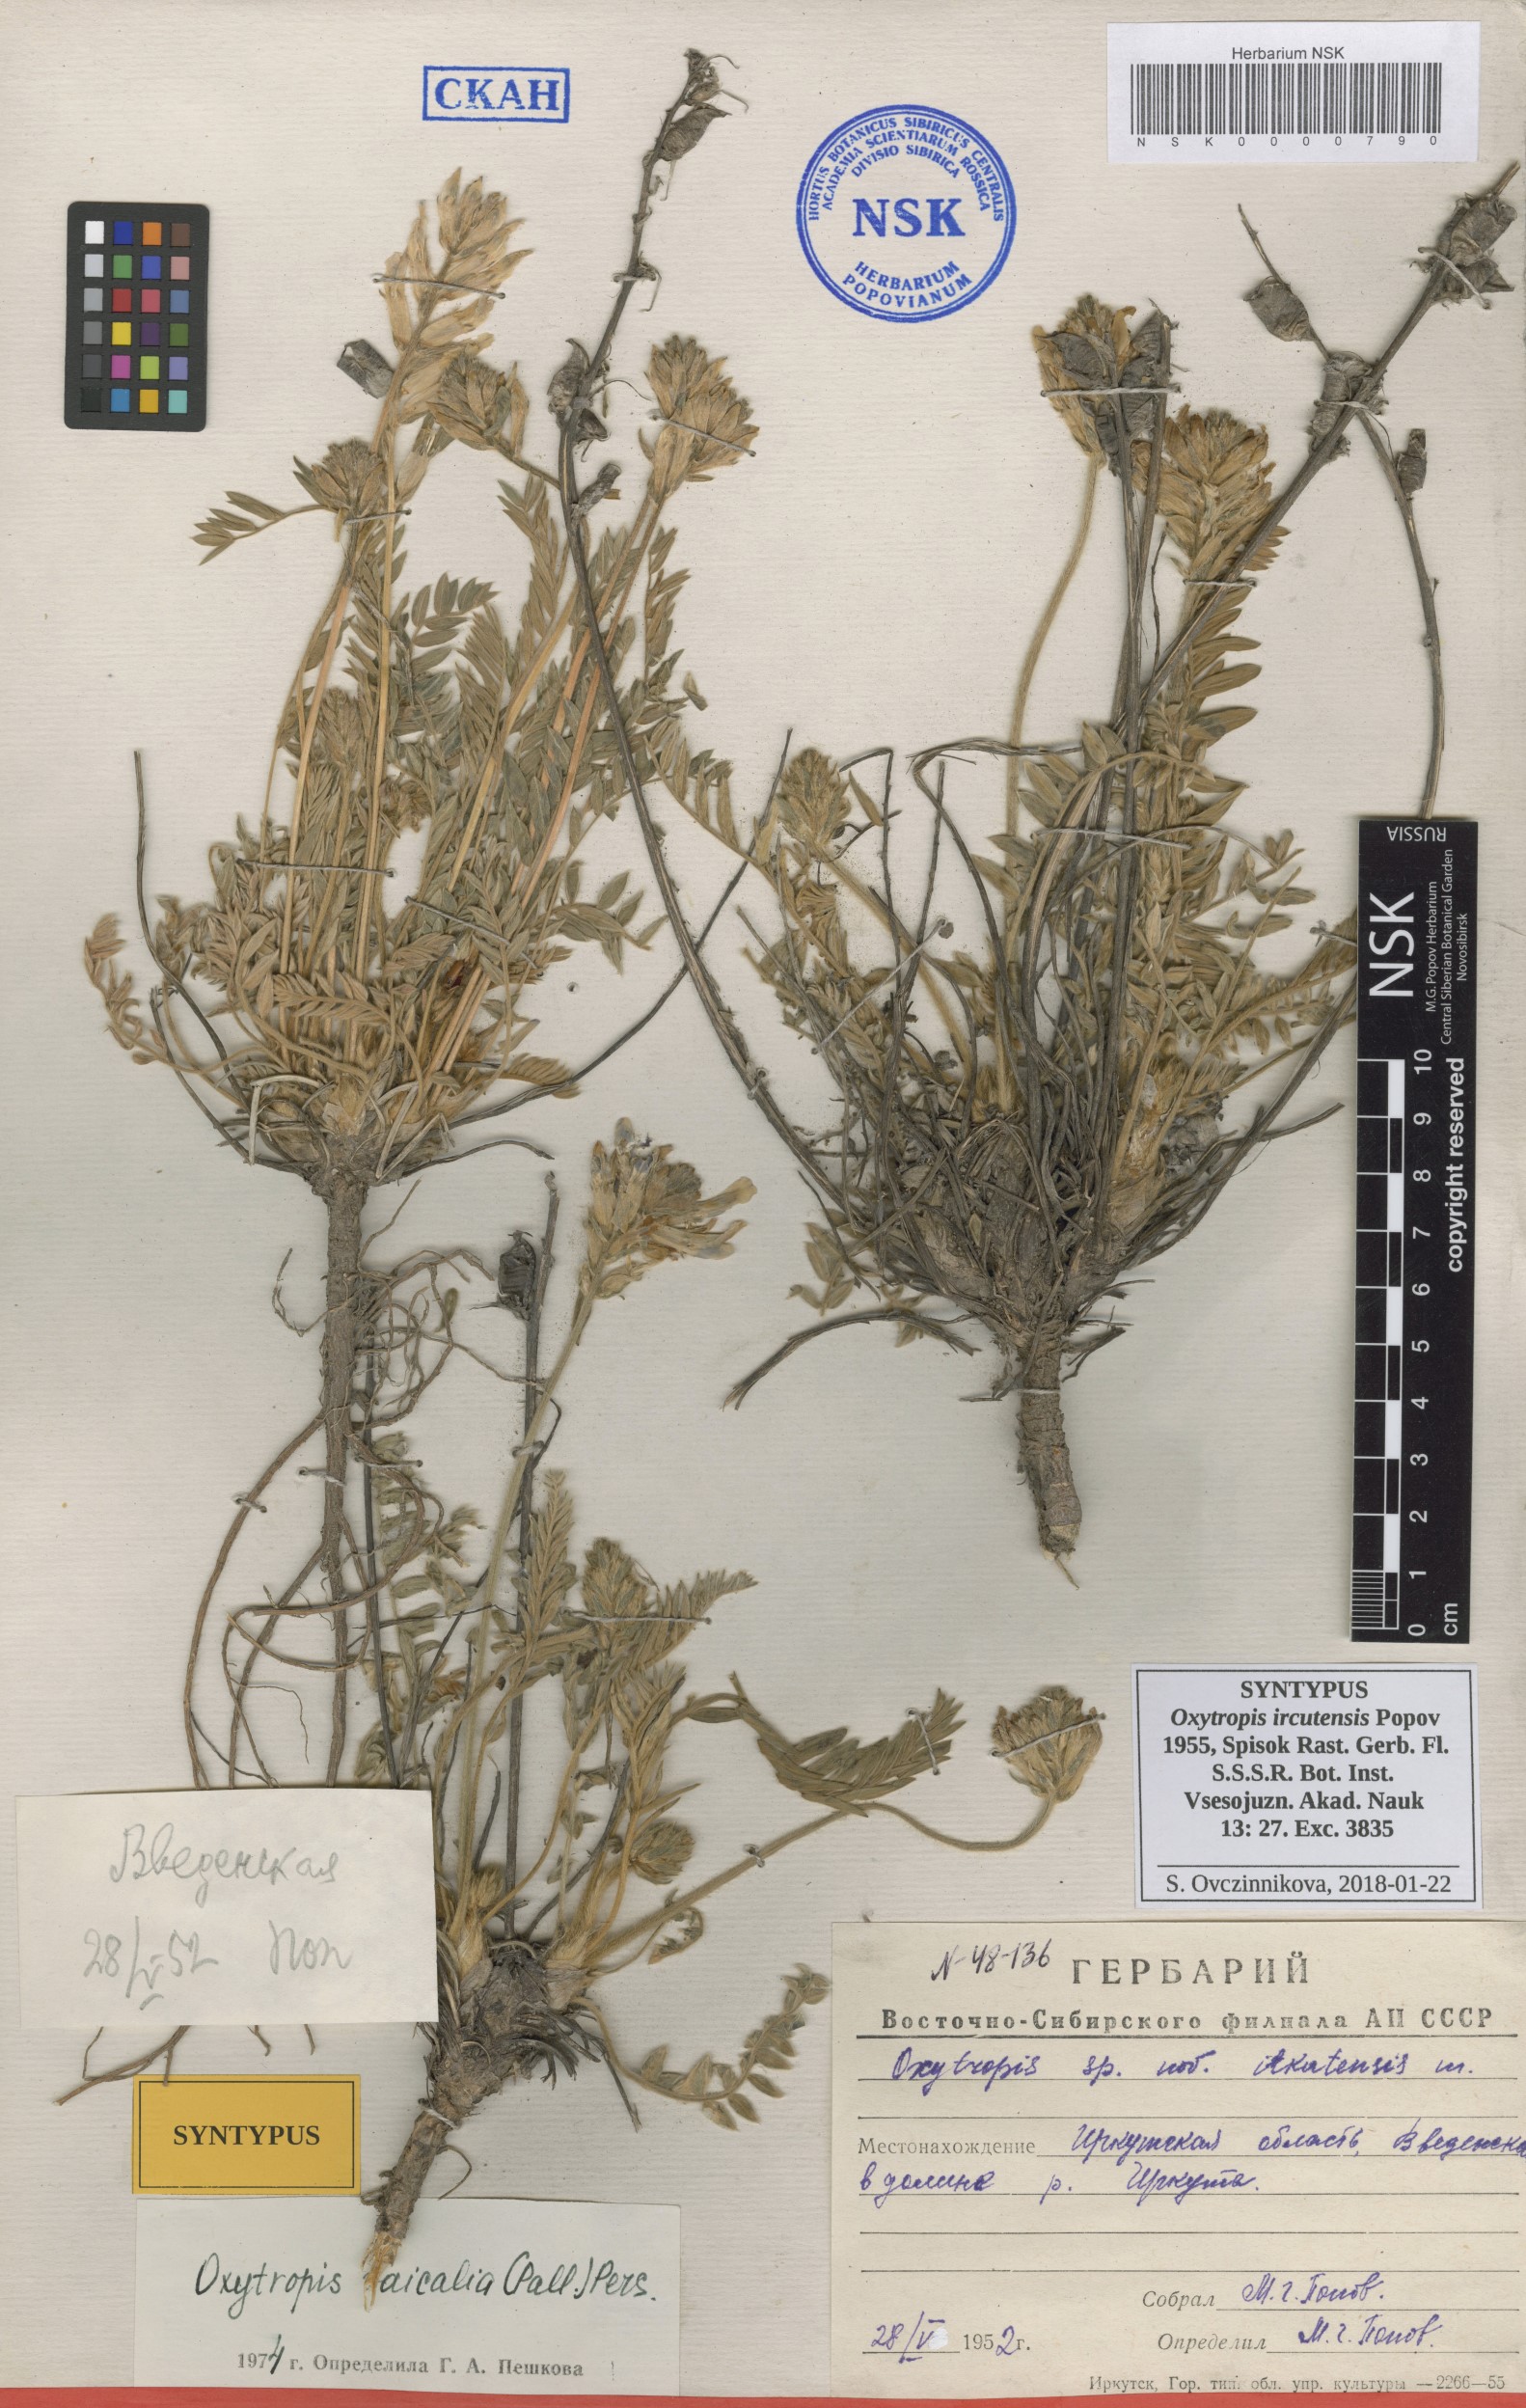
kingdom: Plantae
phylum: Tracheophyta
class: Magnoliopsida
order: Fabales
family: Fabaceae
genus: Oxytropis
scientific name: Oxytropis baicalia
